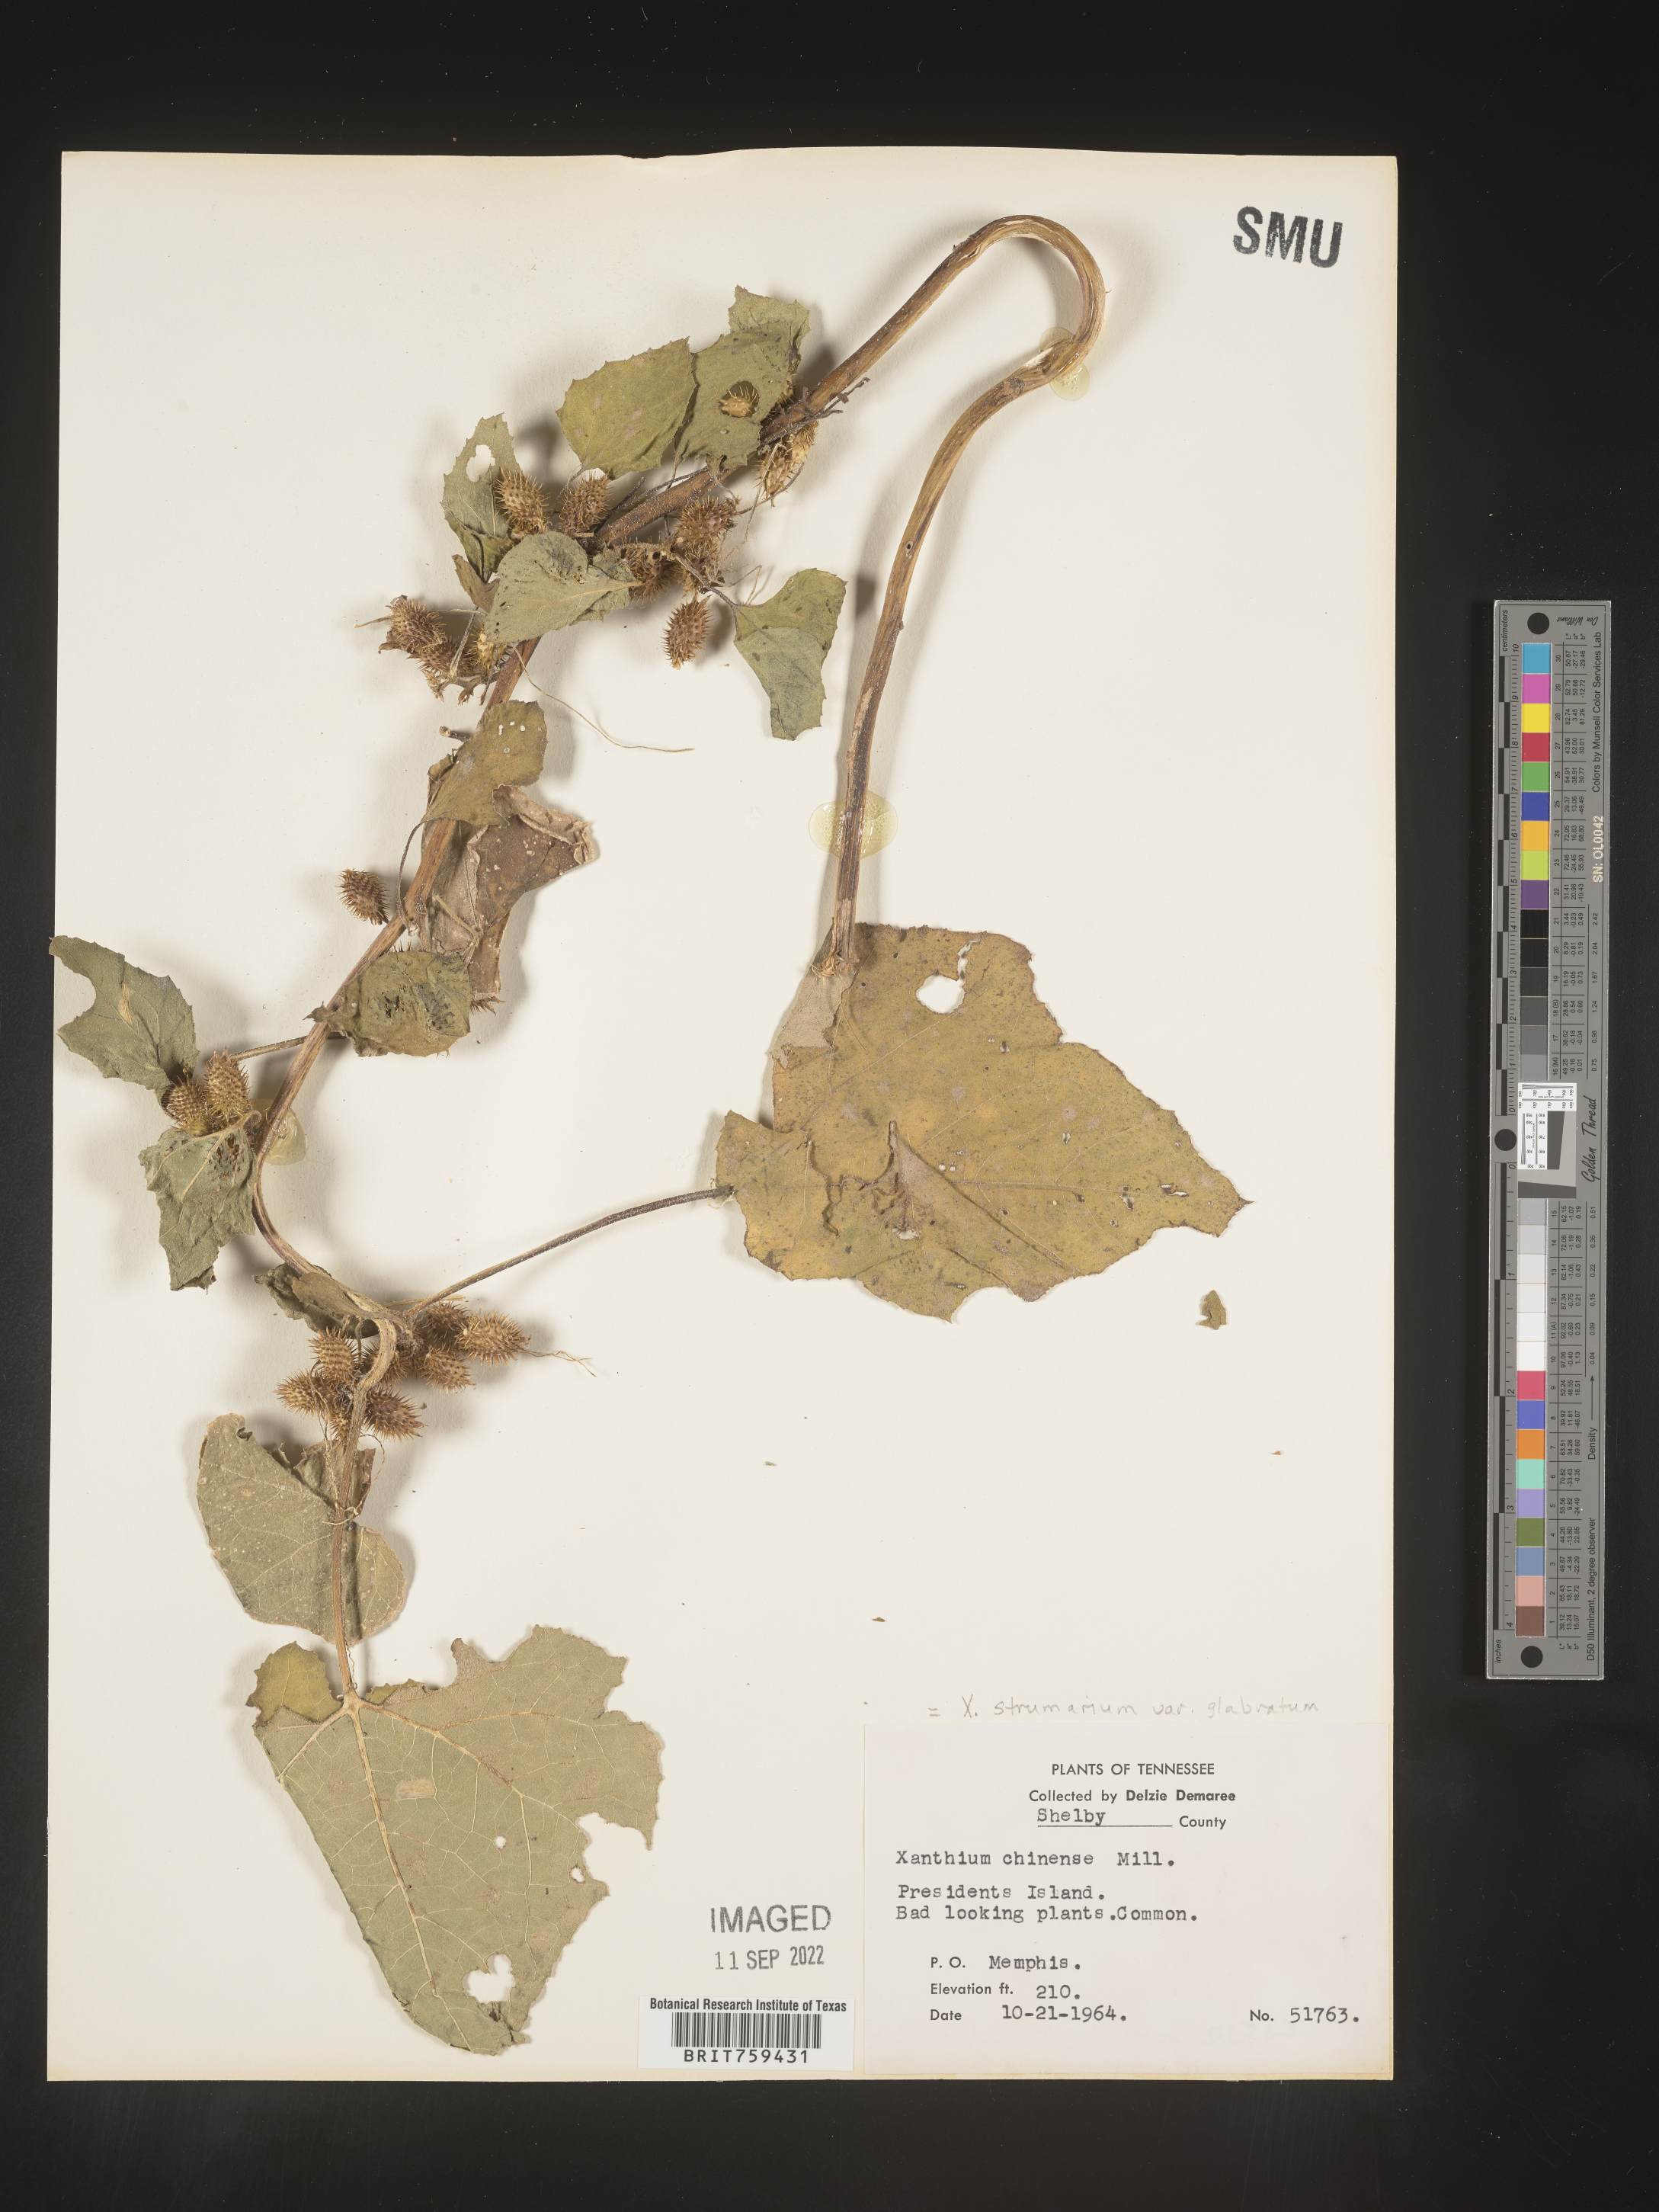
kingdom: Plantae
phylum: Tracheophyta
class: Magnoliopsida
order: Asterales
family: Asteraceae
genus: Xanthium
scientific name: Xanthium occidentale
